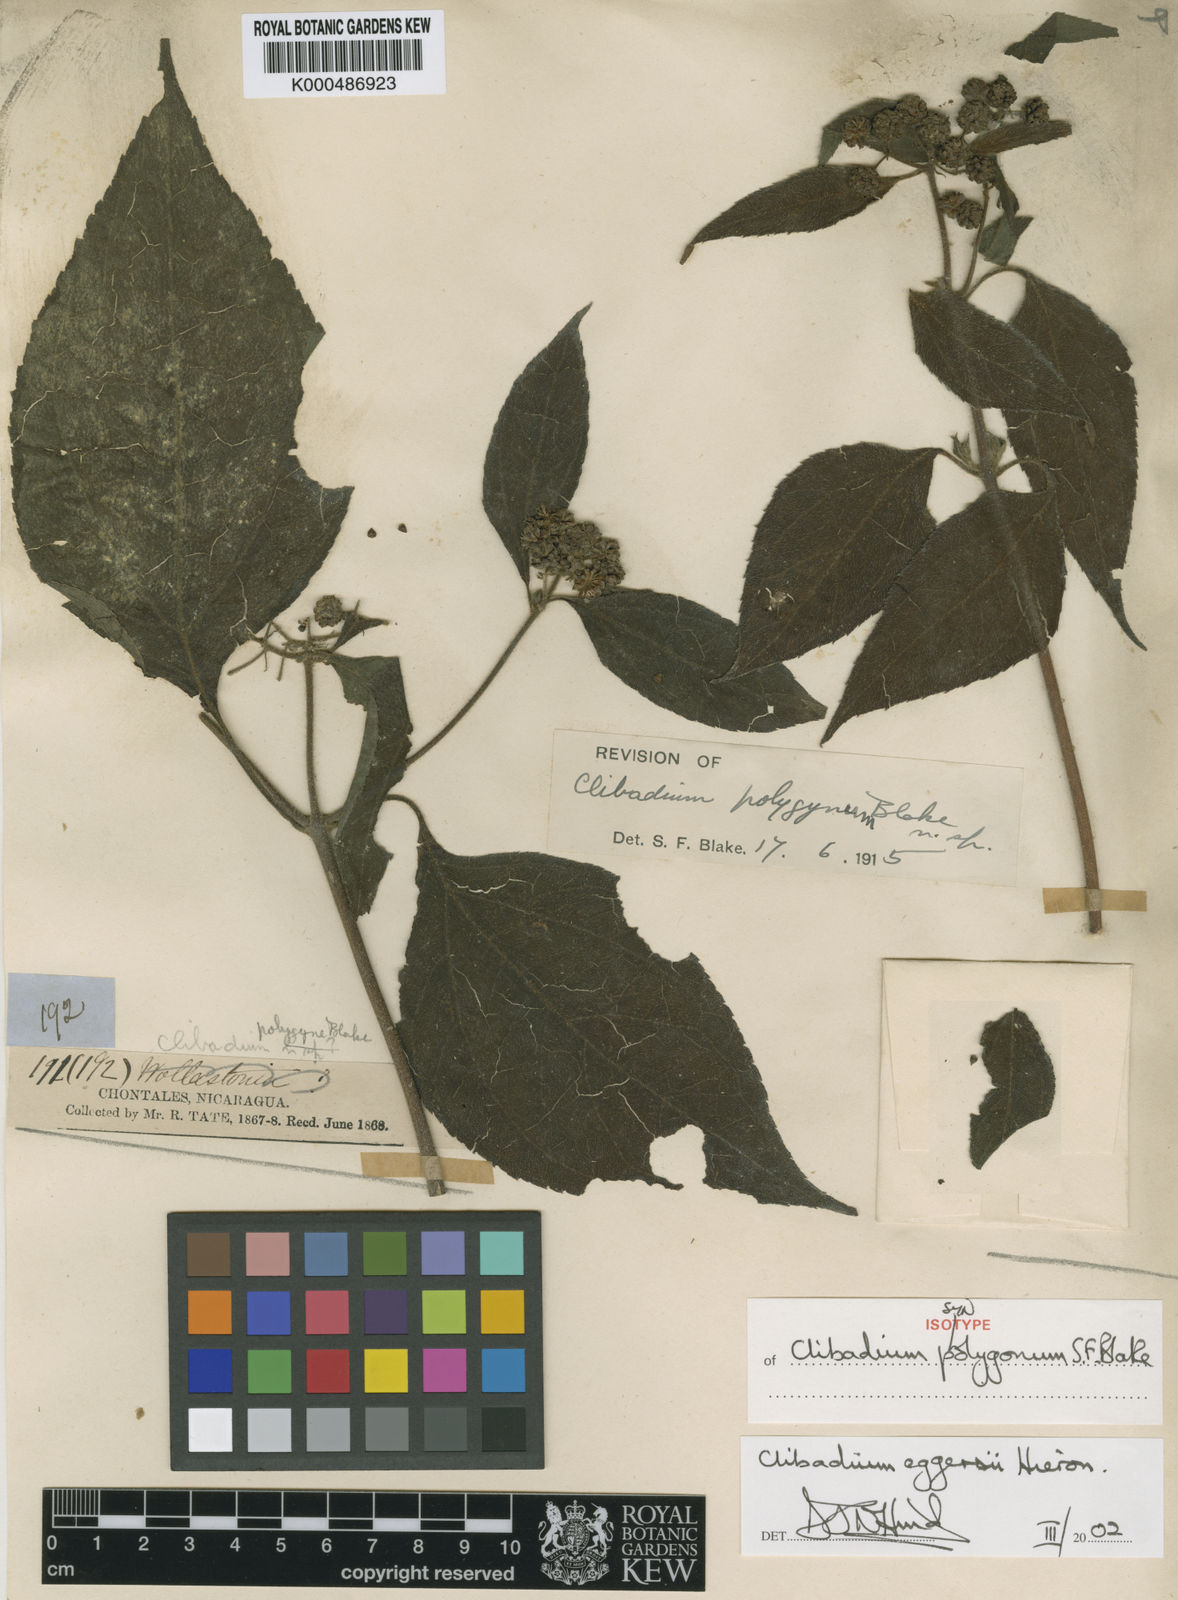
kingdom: Plantae
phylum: Tracheophyta
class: Magnoliopsida
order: Asterales
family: Asteraceae
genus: Clibadium
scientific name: Clibadium eggersii
